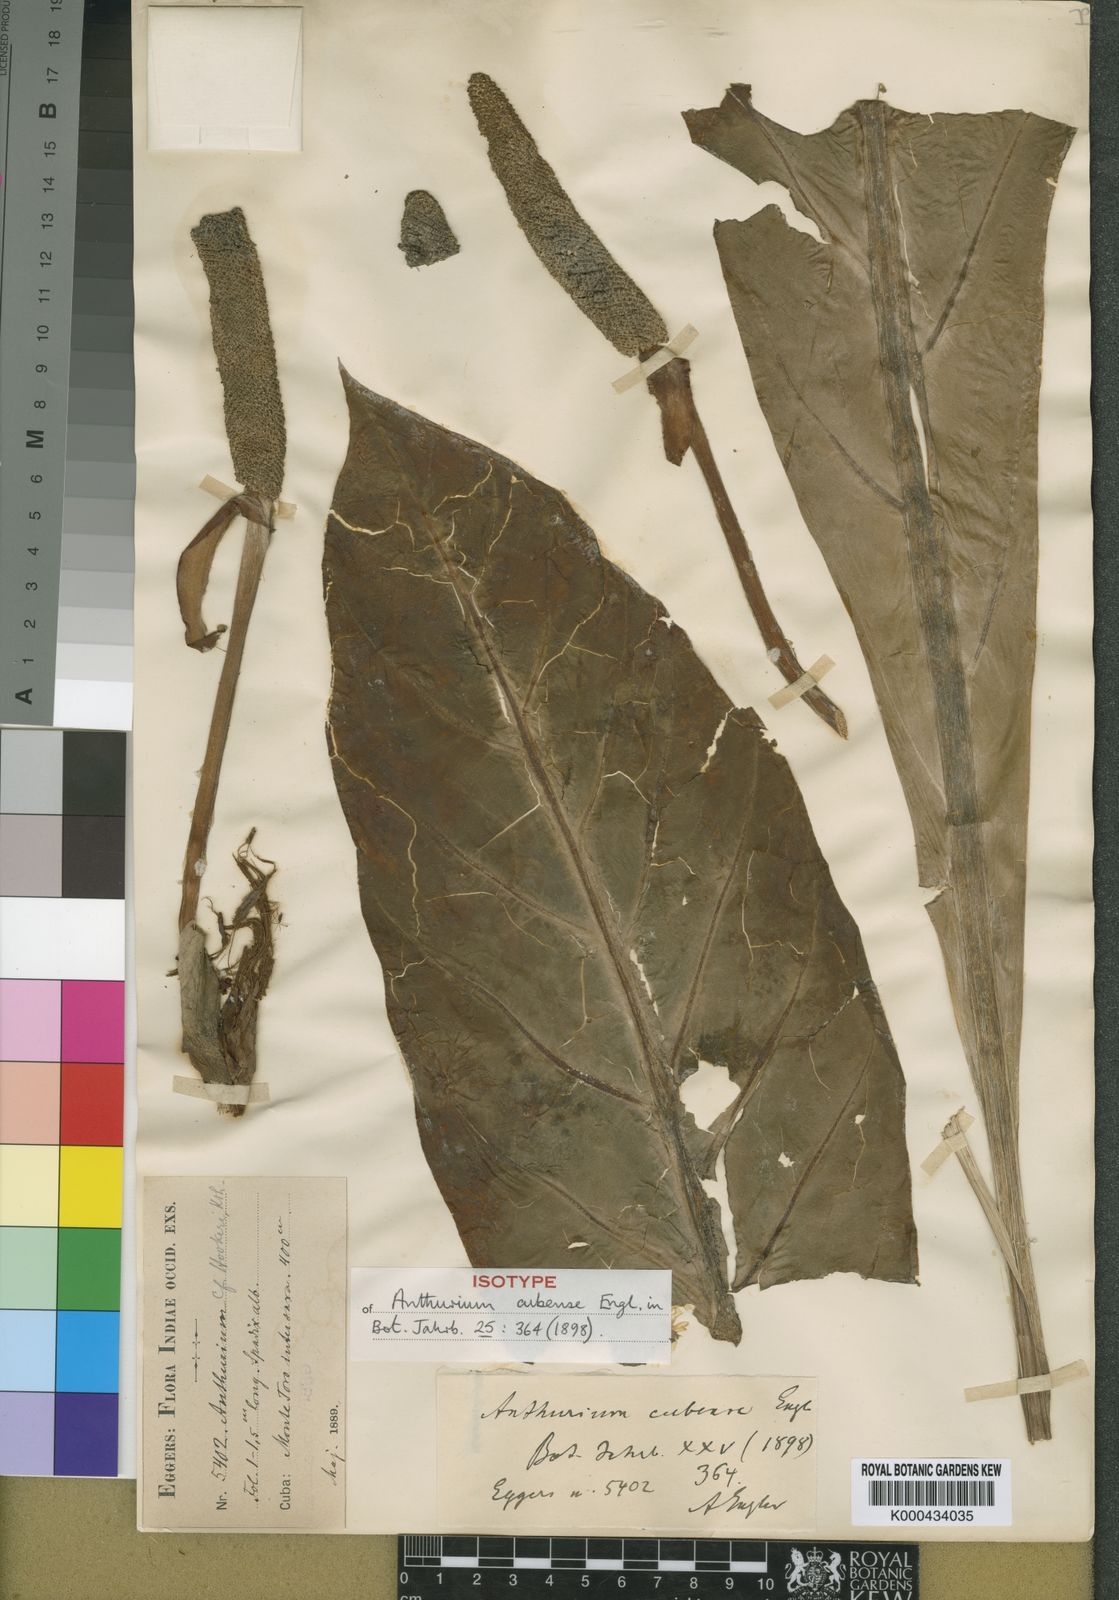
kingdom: Plantae
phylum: Tracheophyta
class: Liliopsida
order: Alismatales
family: Araceae
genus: Anthurium
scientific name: Anthurium cubense
